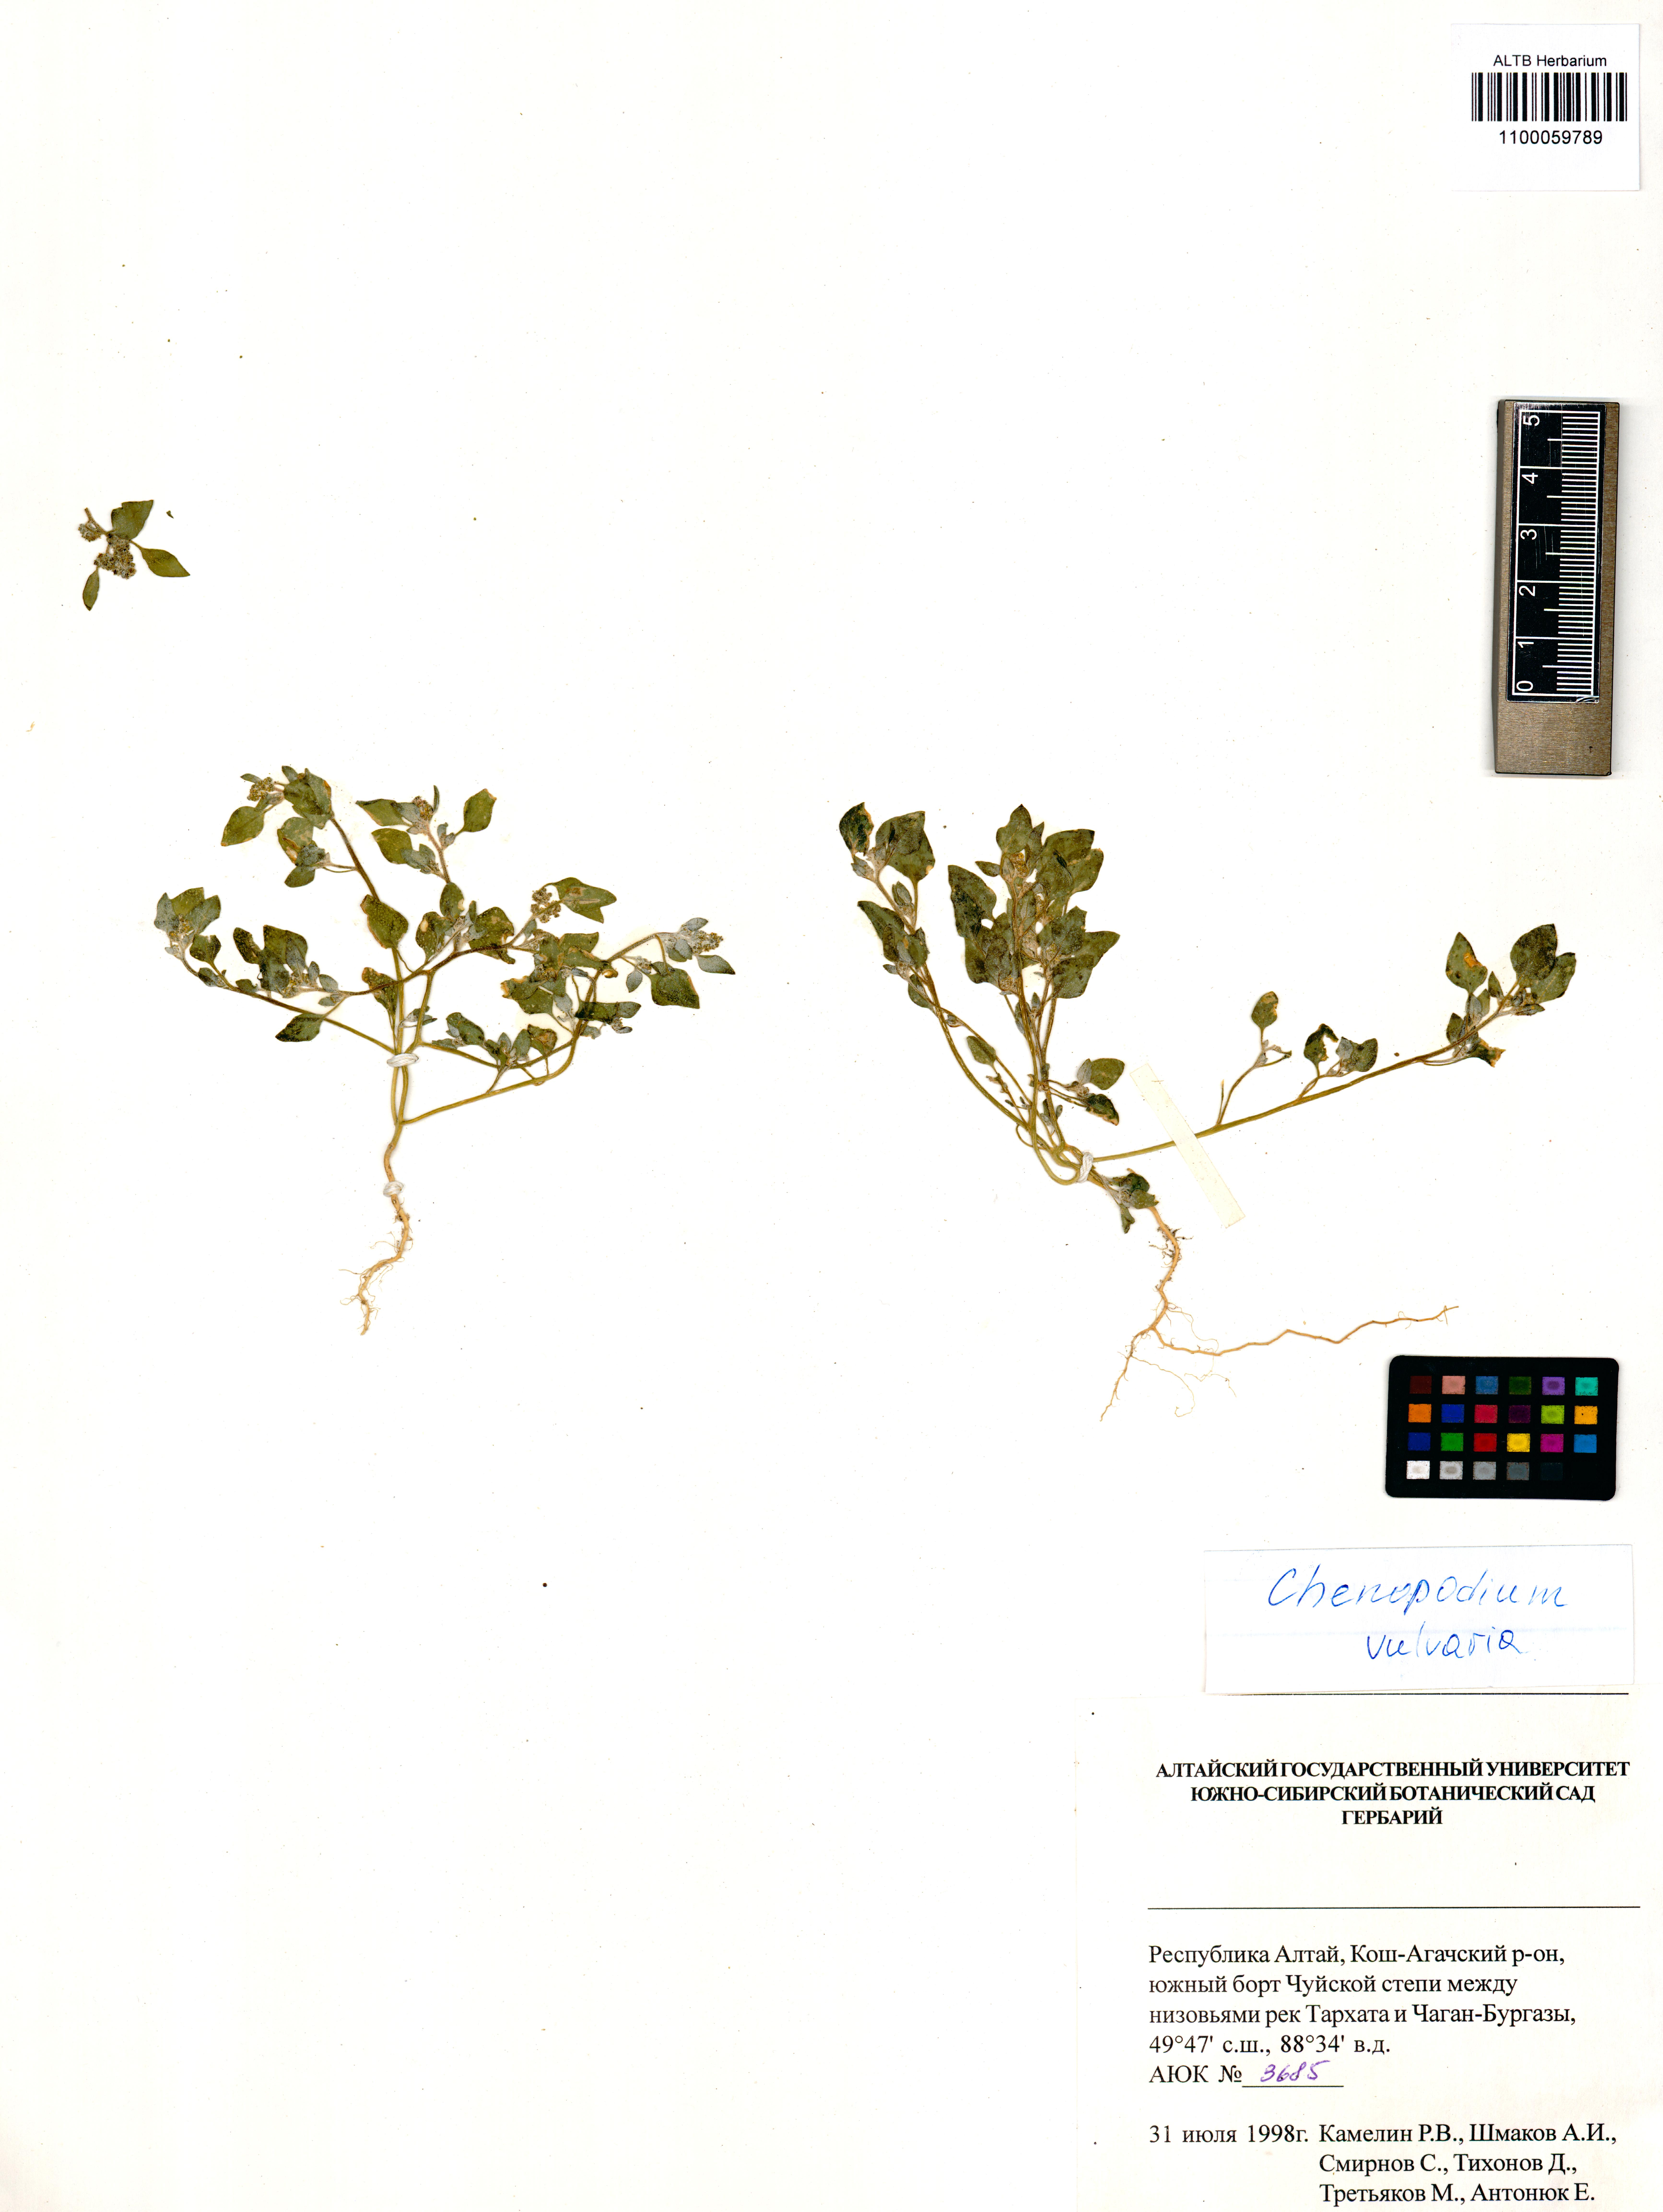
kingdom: Plantae
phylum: Tracheophyta
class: Magnoliopsida
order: Caryophyllales
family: Amaranthaceae
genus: Chenopodium
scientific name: Chenopodium vulvaria
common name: Stinking goosefoot
